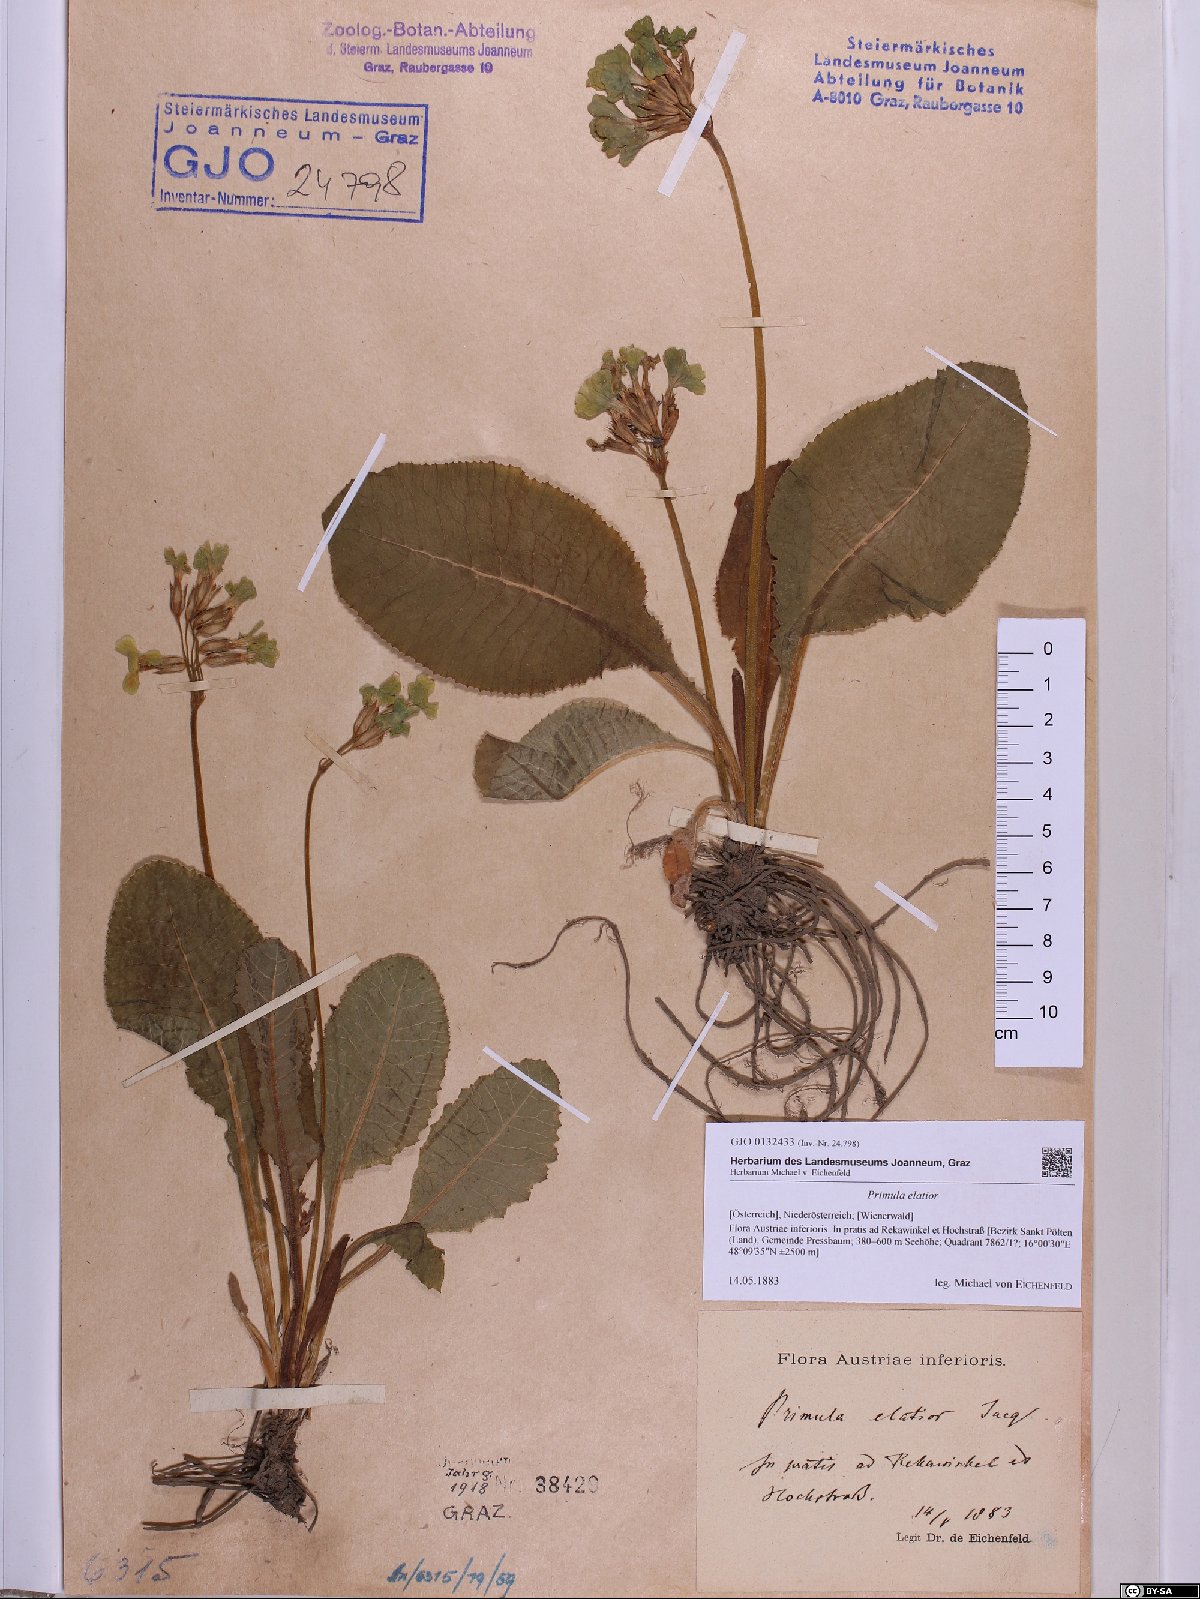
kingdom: Plantae
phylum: Tracheophyta
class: Magnoliopsida
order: Ericales
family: Primulaceae
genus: Primula
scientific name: Primula elatior
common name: Oxlip
